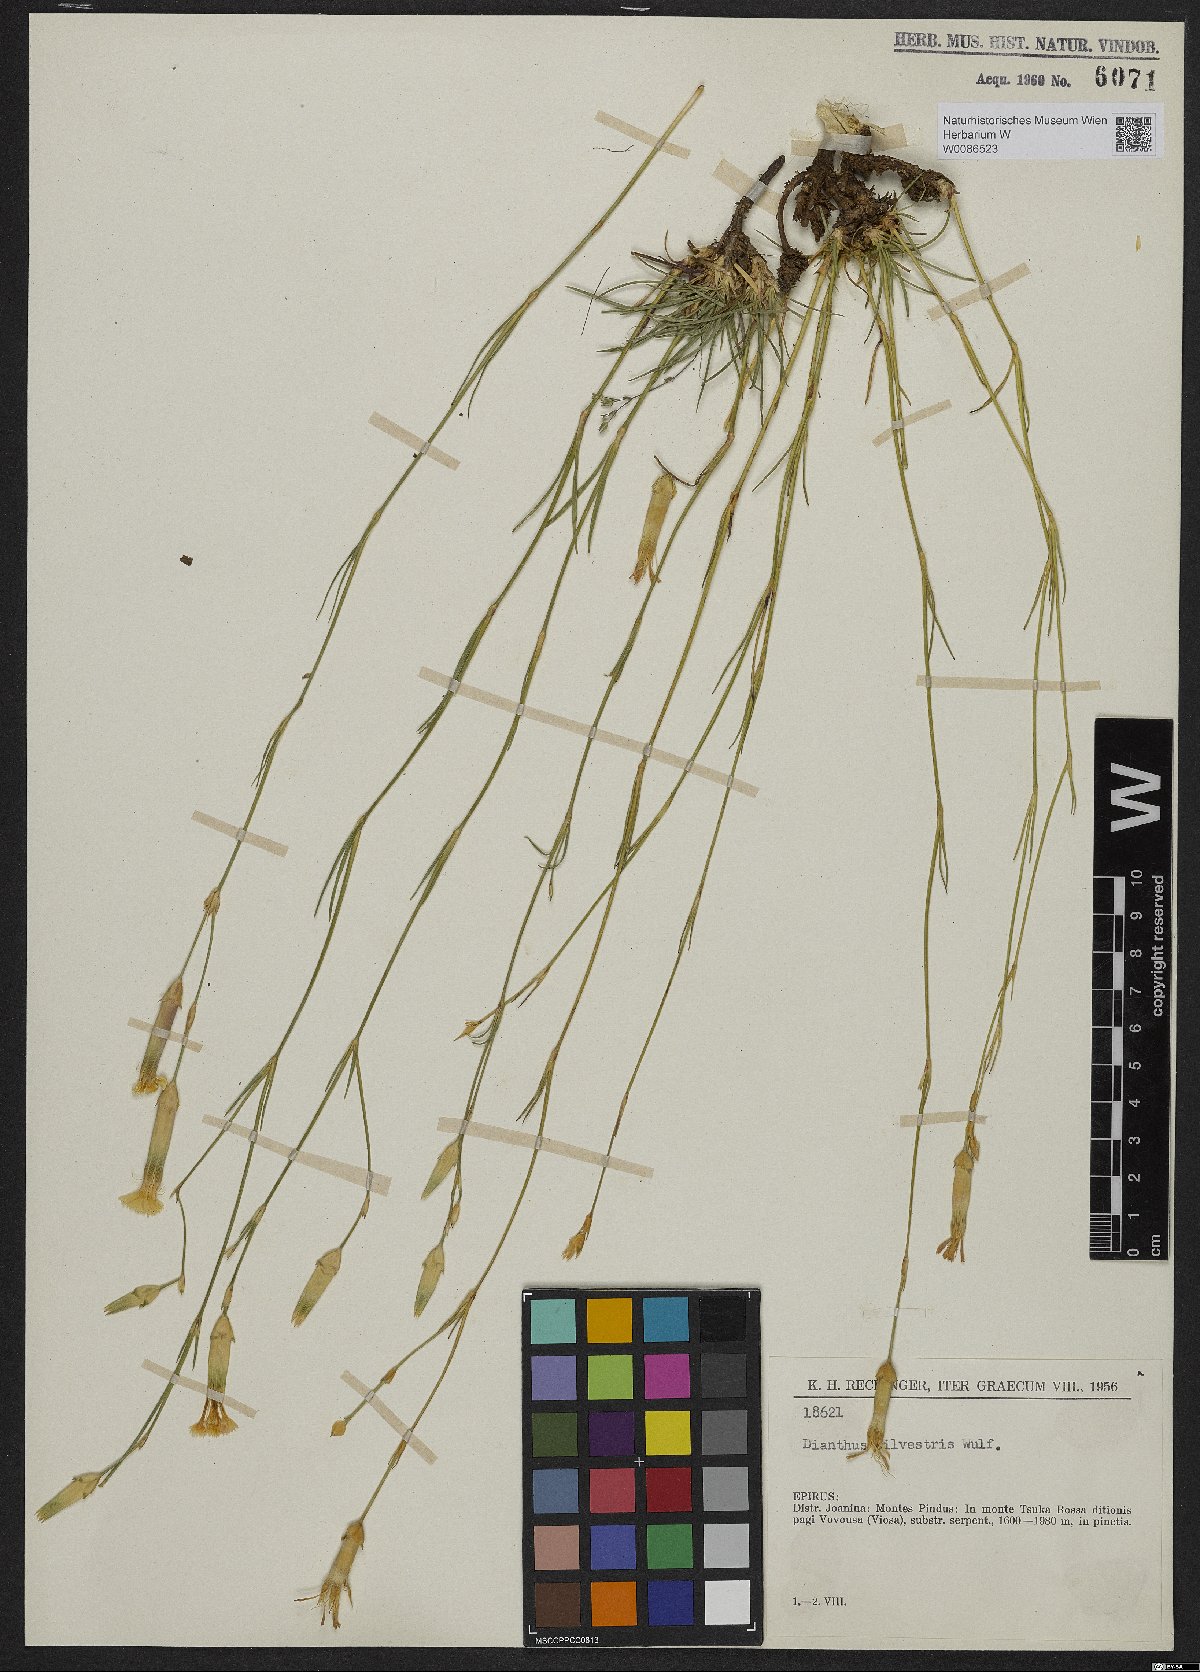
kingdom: Plantae
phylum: Tracheophyta
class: Magnoliopsida
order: Caryophyllales
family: Caryophyllaceae
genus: Dianthus
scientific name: Dianthus sylvestris
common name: Wood pink
